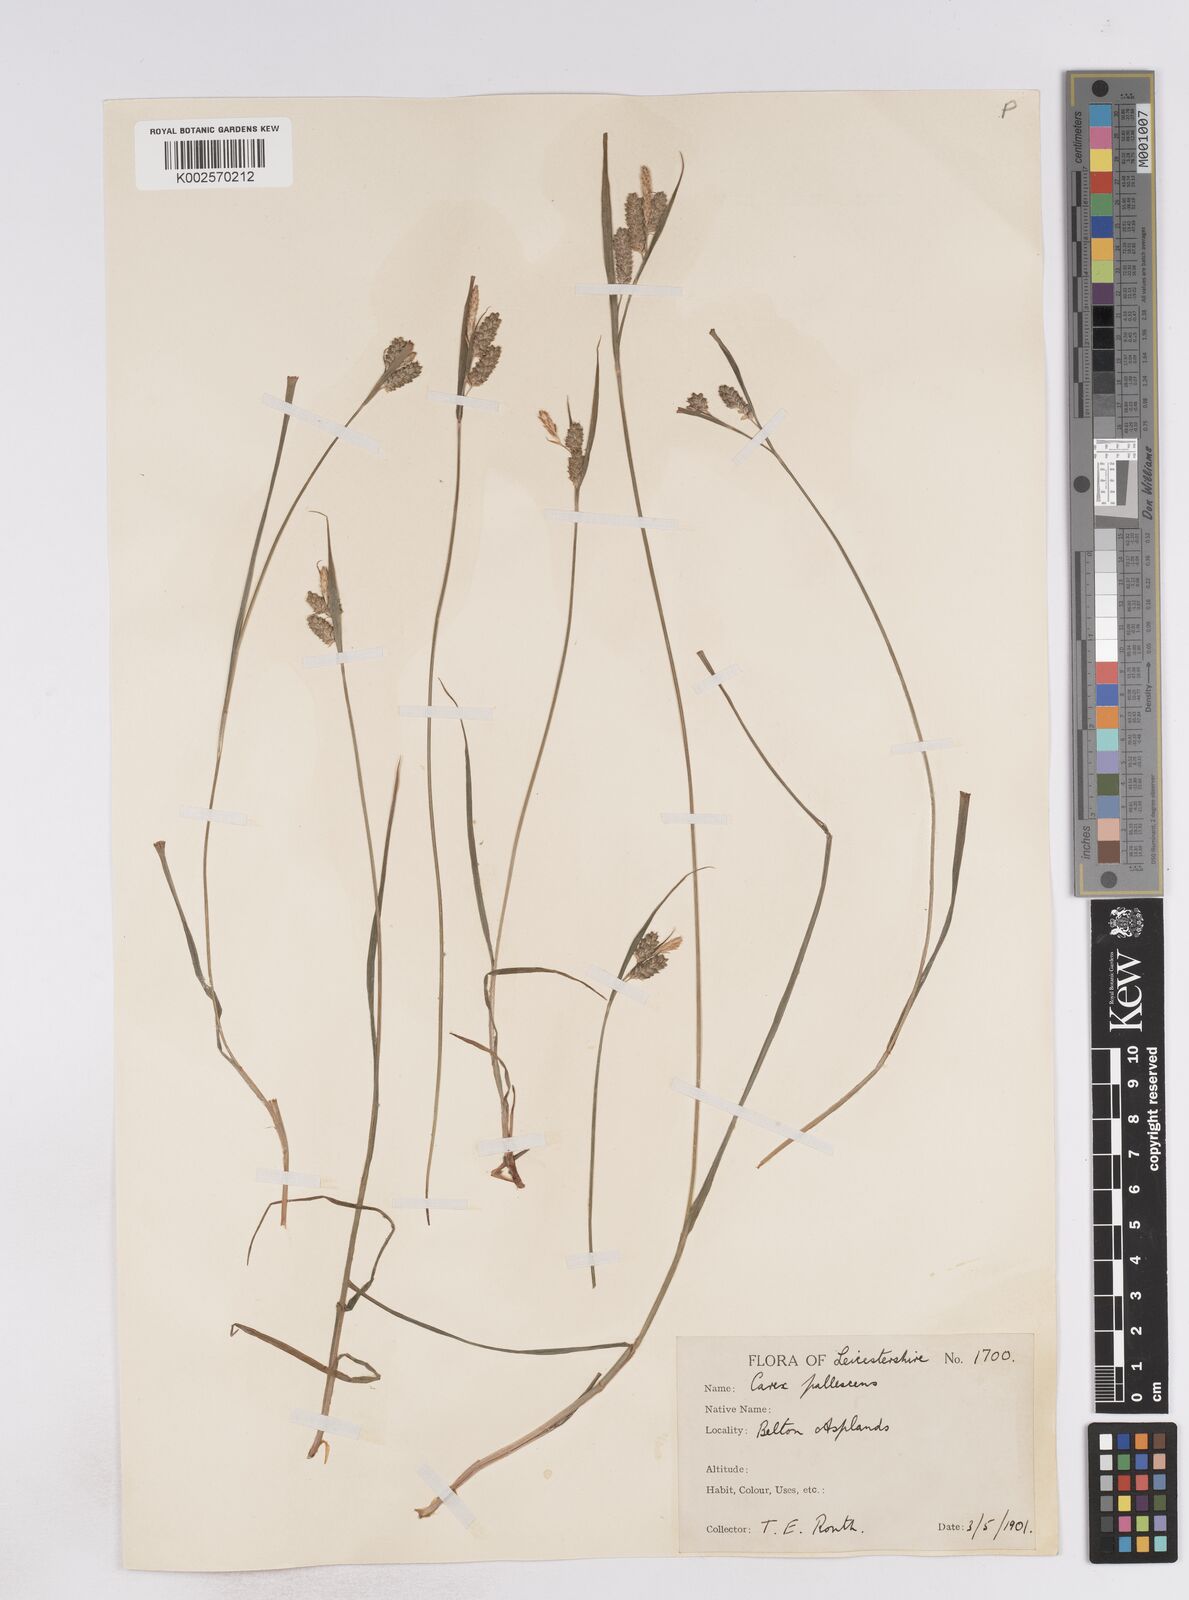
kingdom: Plantae
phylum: Tracheophyta
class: Liliopsida
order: Poales
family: Cyperaceae
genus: Carex
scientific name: Carex pallescens
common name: Pale sedge
